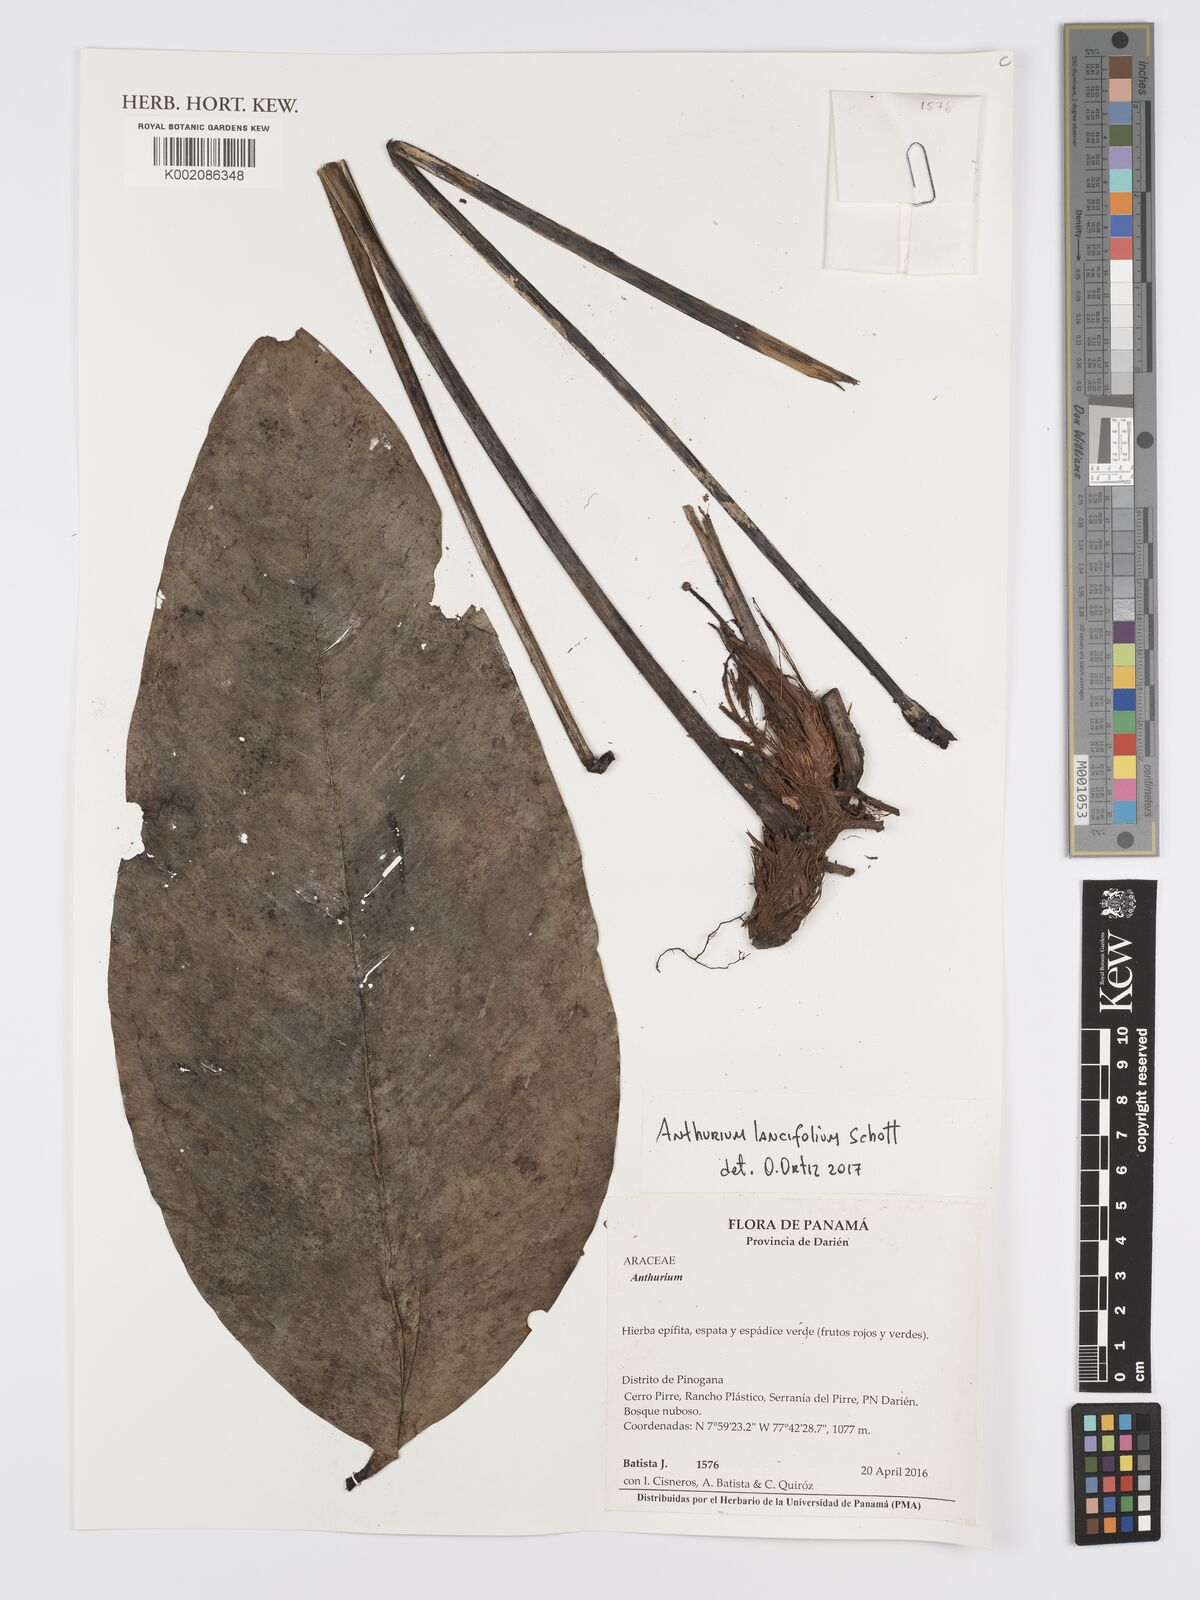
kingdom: Plantae
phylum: Tracheophyta
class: Liliopsida
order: Alismatales
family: Araceae
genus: Anthurium
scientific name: Anthurium lancifolium
